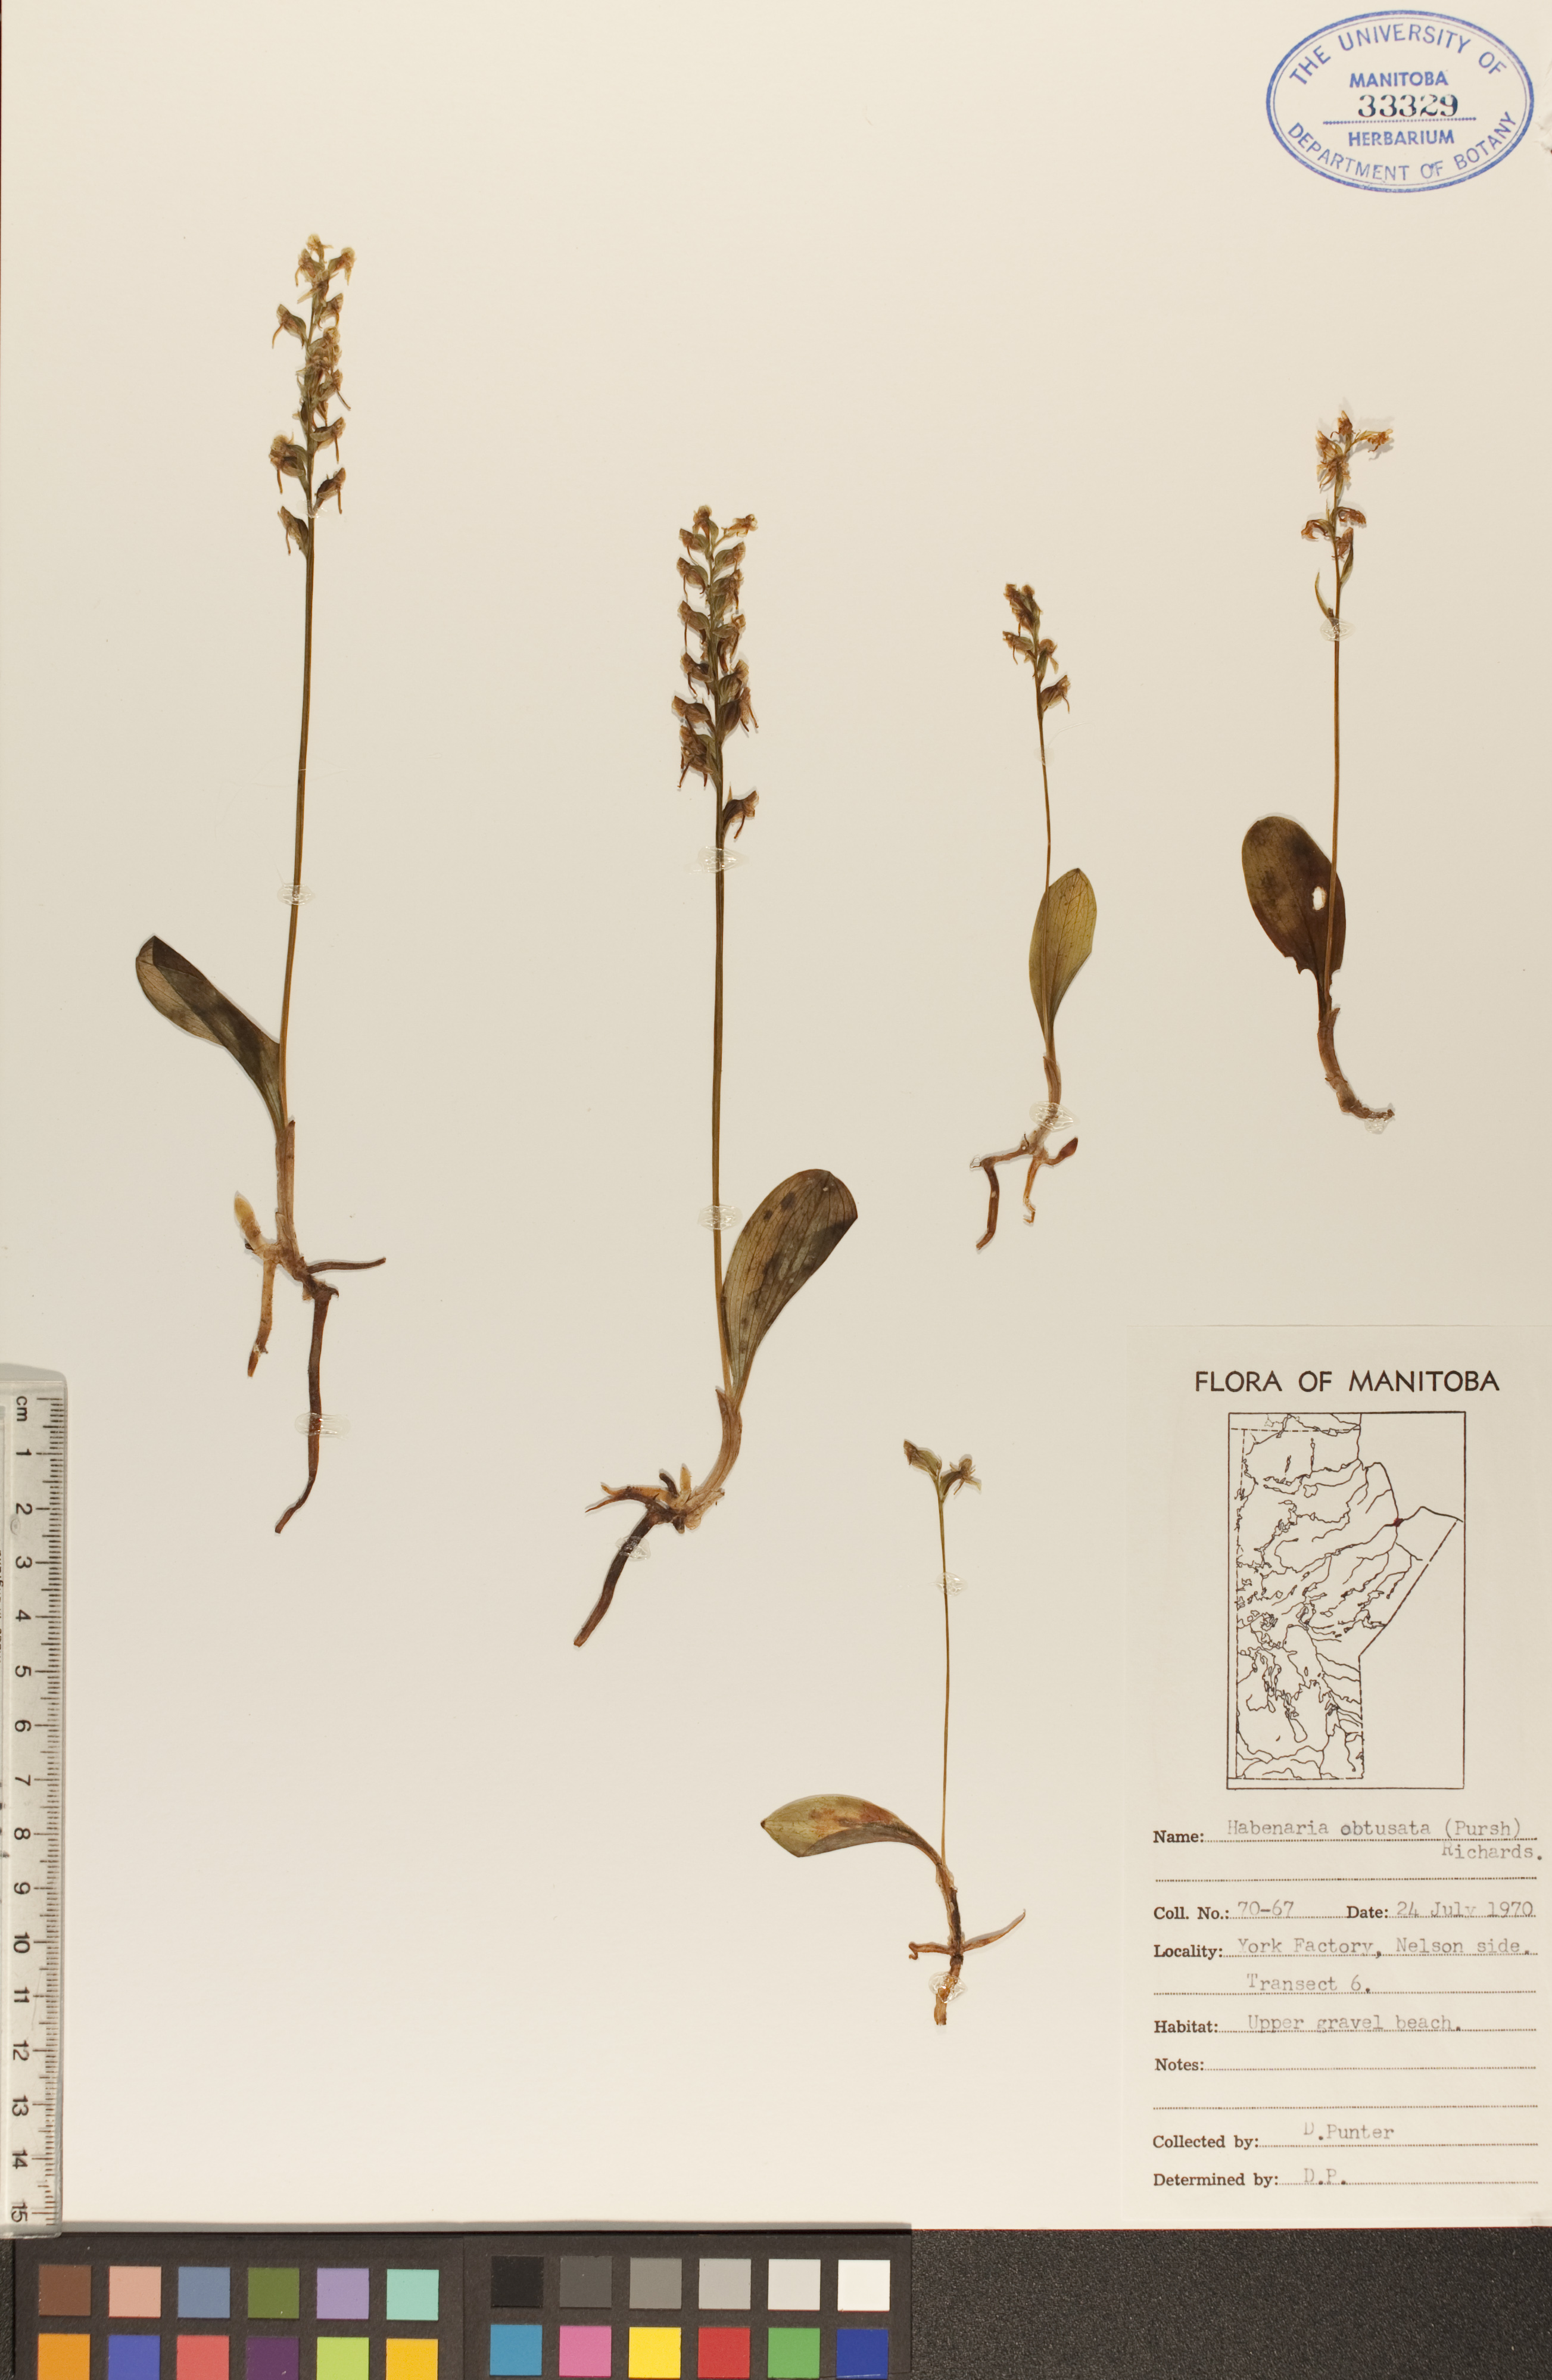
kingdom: Plantae
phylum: Tracheophyta
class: Liliopsida
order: Asparagales
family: Orchidaceae
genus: Platanthera
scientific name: Platanthera obtusata
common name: Blunt bog orchid
